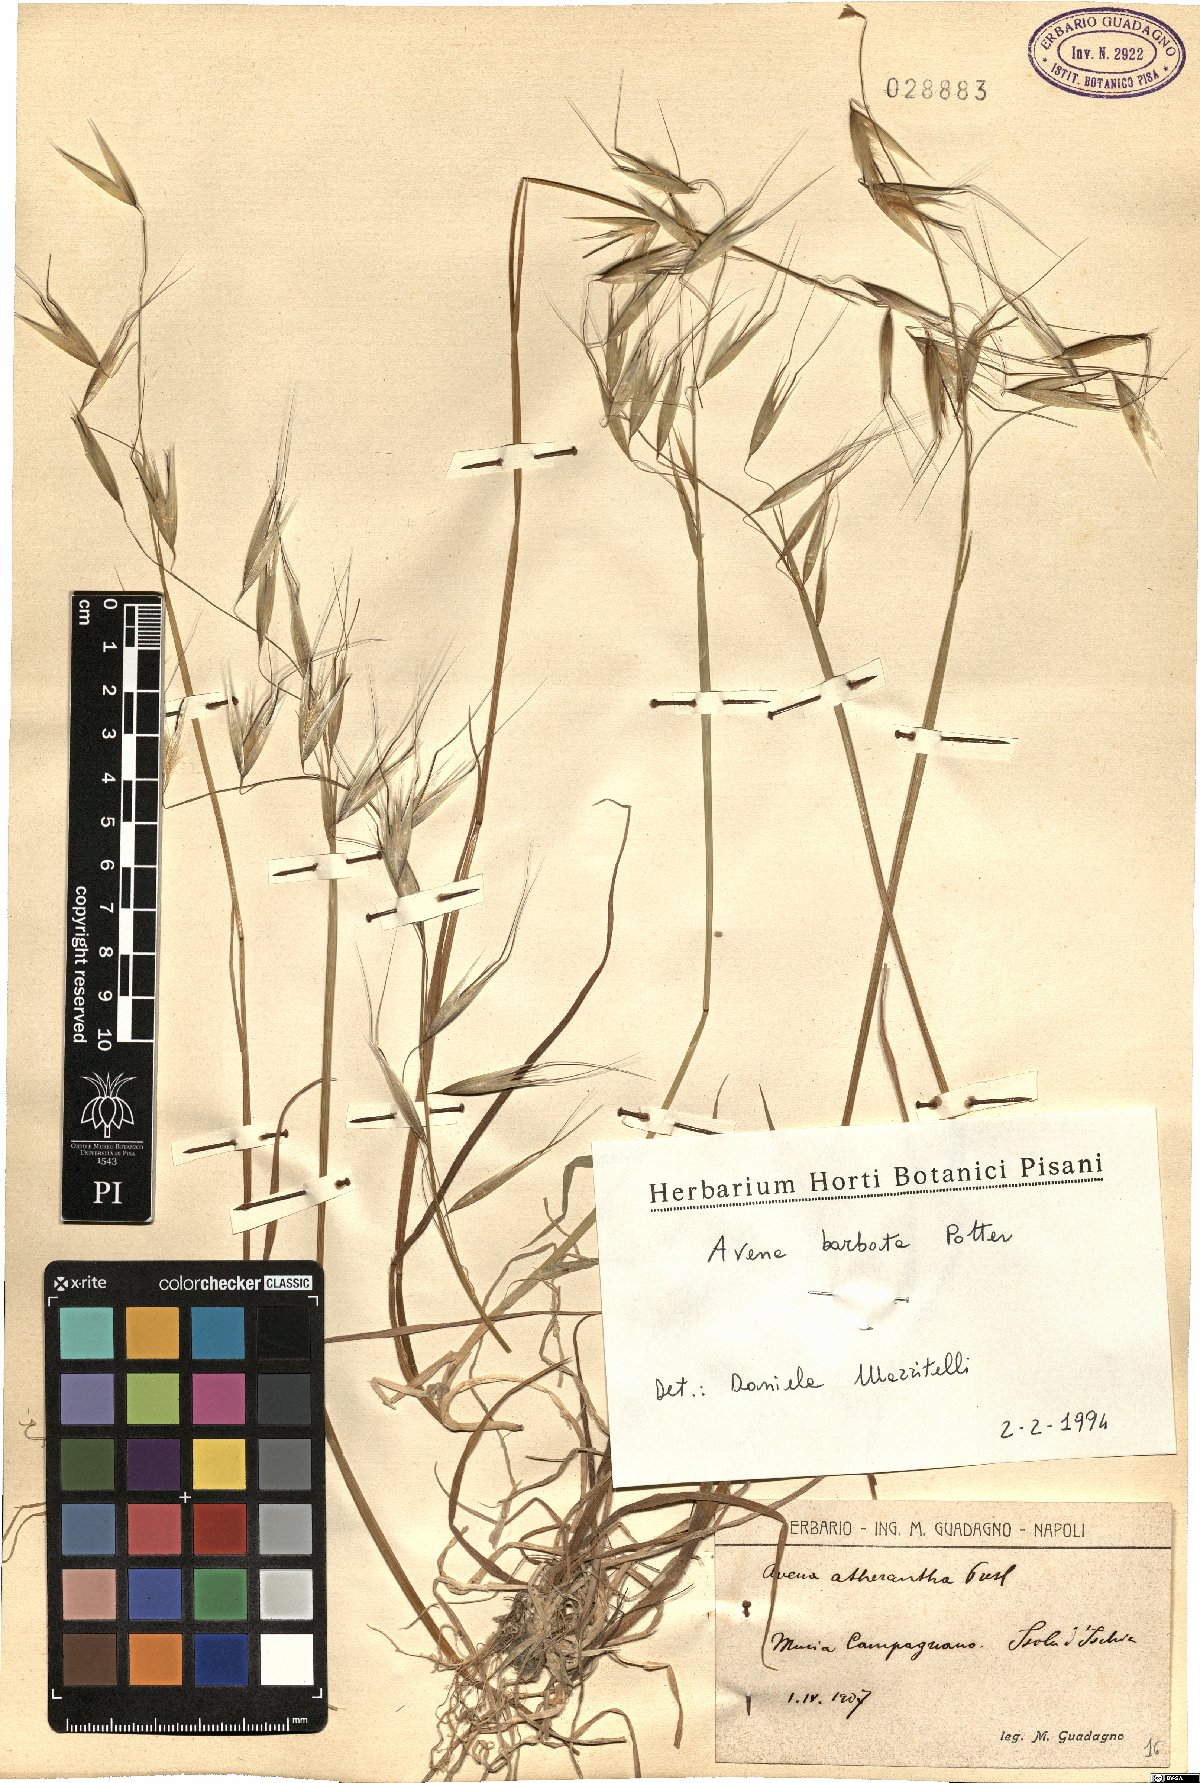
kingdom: Plantae
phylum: Tracheophyta
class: Liliopsida
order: Poales
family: Poaceae
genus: Avena
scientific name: Avena barbata
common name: Slender oat
